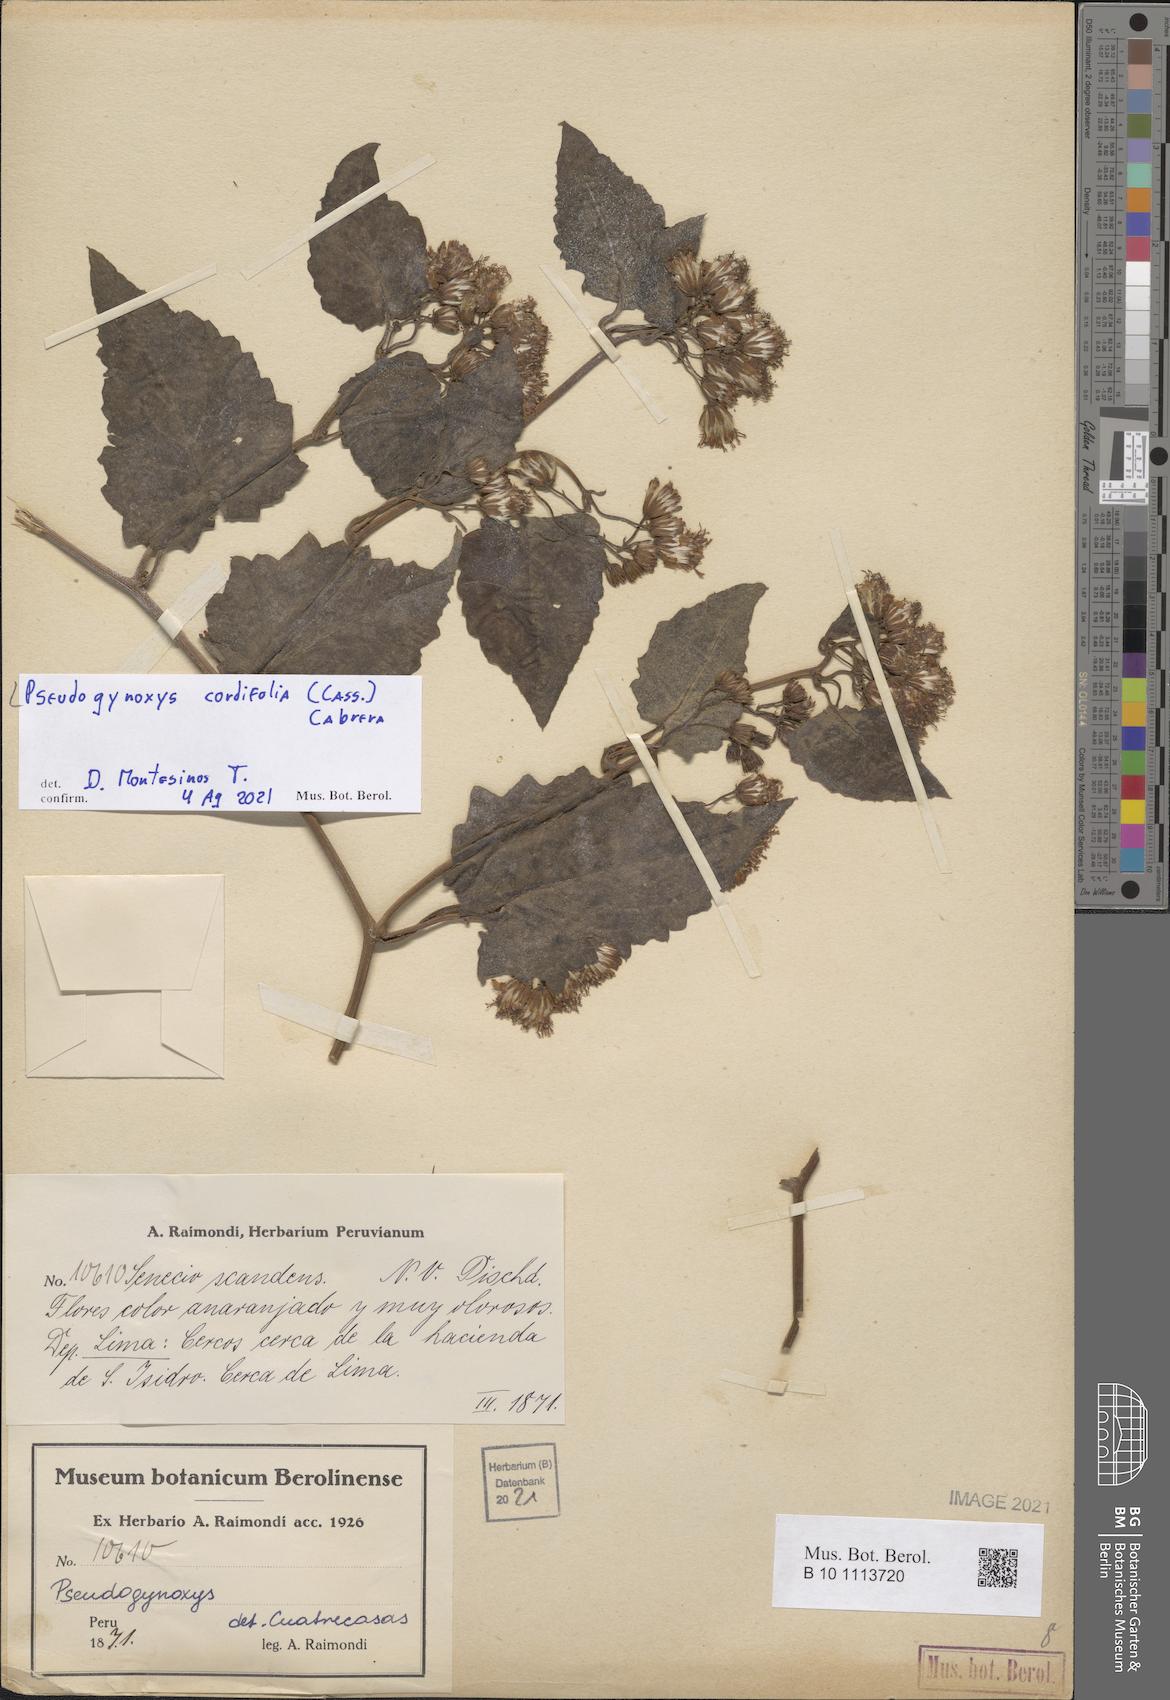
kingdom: Plantae
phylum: Tracheophyta
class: Magnoliopsida
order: Asterales
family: Asteraceae
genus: Pseudogynoxys
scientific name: Pseudogynoxys chenopodioides
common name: Mexican flamevine
